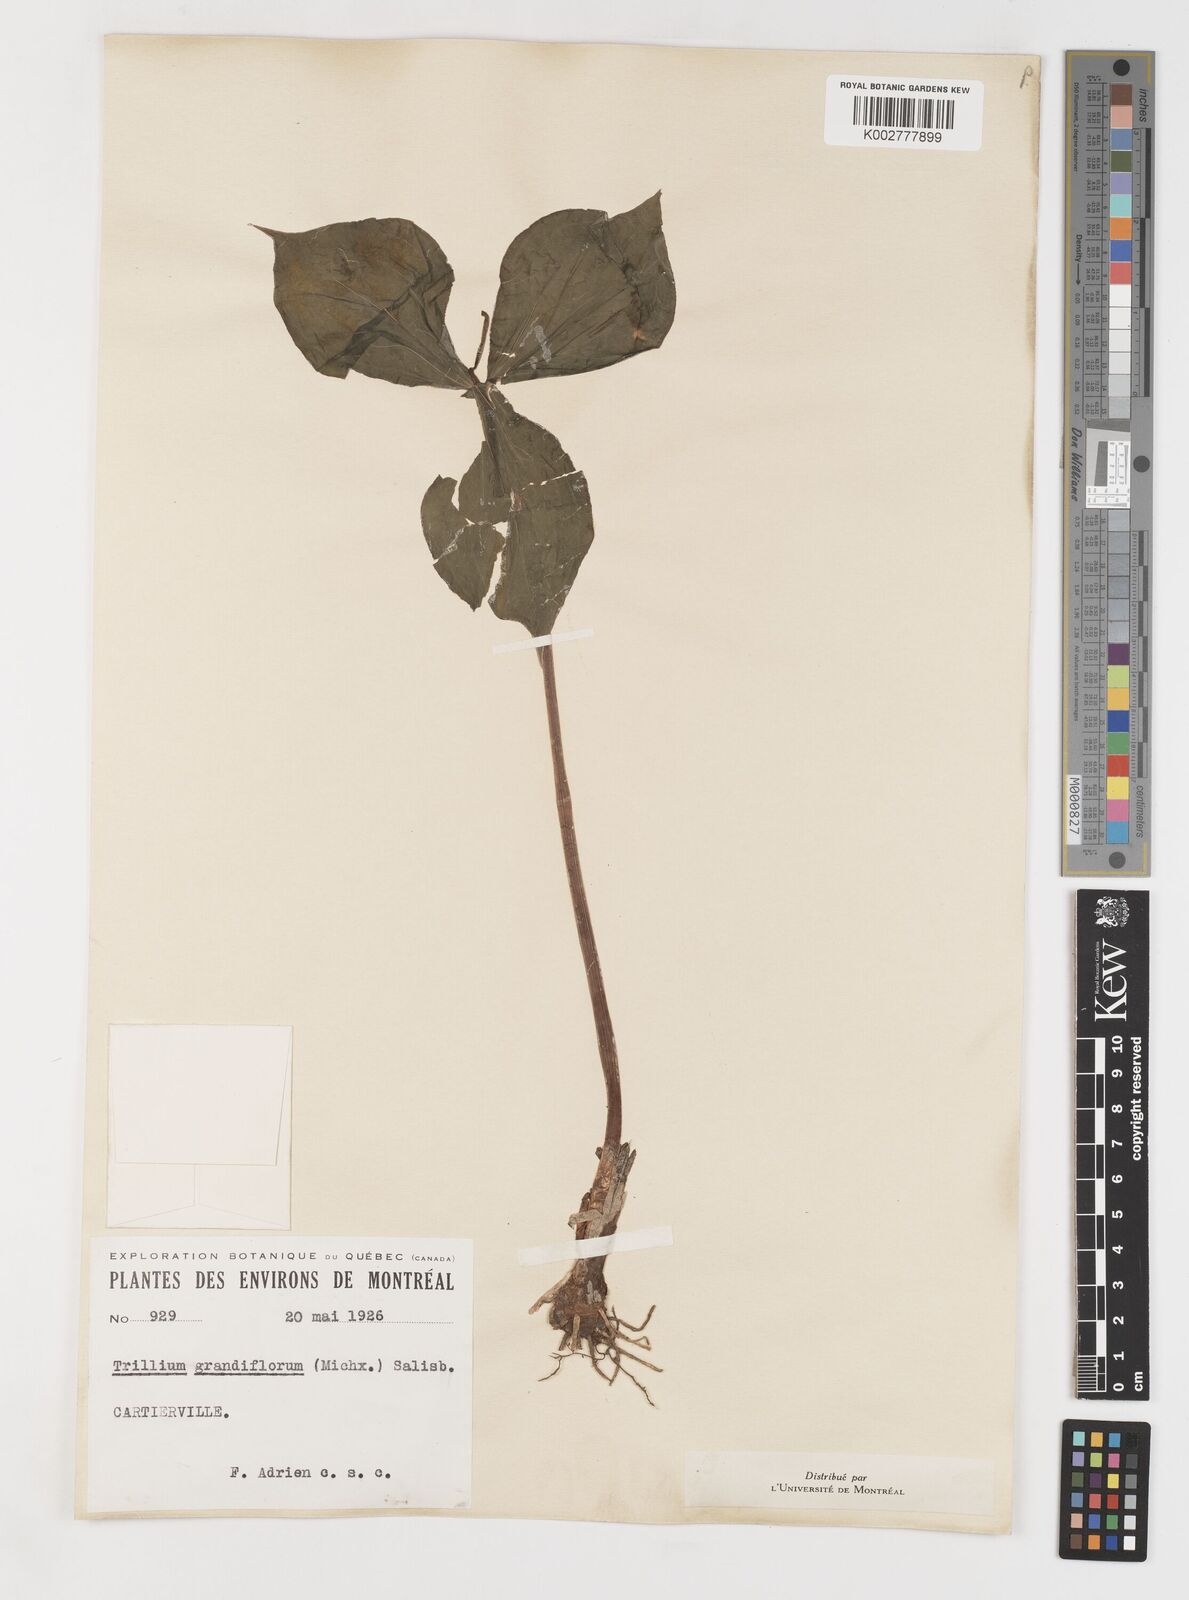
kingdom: Plantae
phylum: Tracheophyta
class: Liliopsida
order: Liliales
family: Melanthiaceae
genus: Trillium
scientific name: Trillium grandiflorum
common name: Great white trillium
